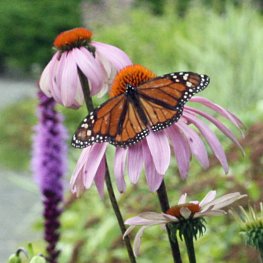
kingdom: Animalia
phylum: Arthropoda
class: Insecta
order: Lepidoptera
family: Nymphalidae
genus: Danaus
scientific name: Danaus plexippus
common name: Monarch
